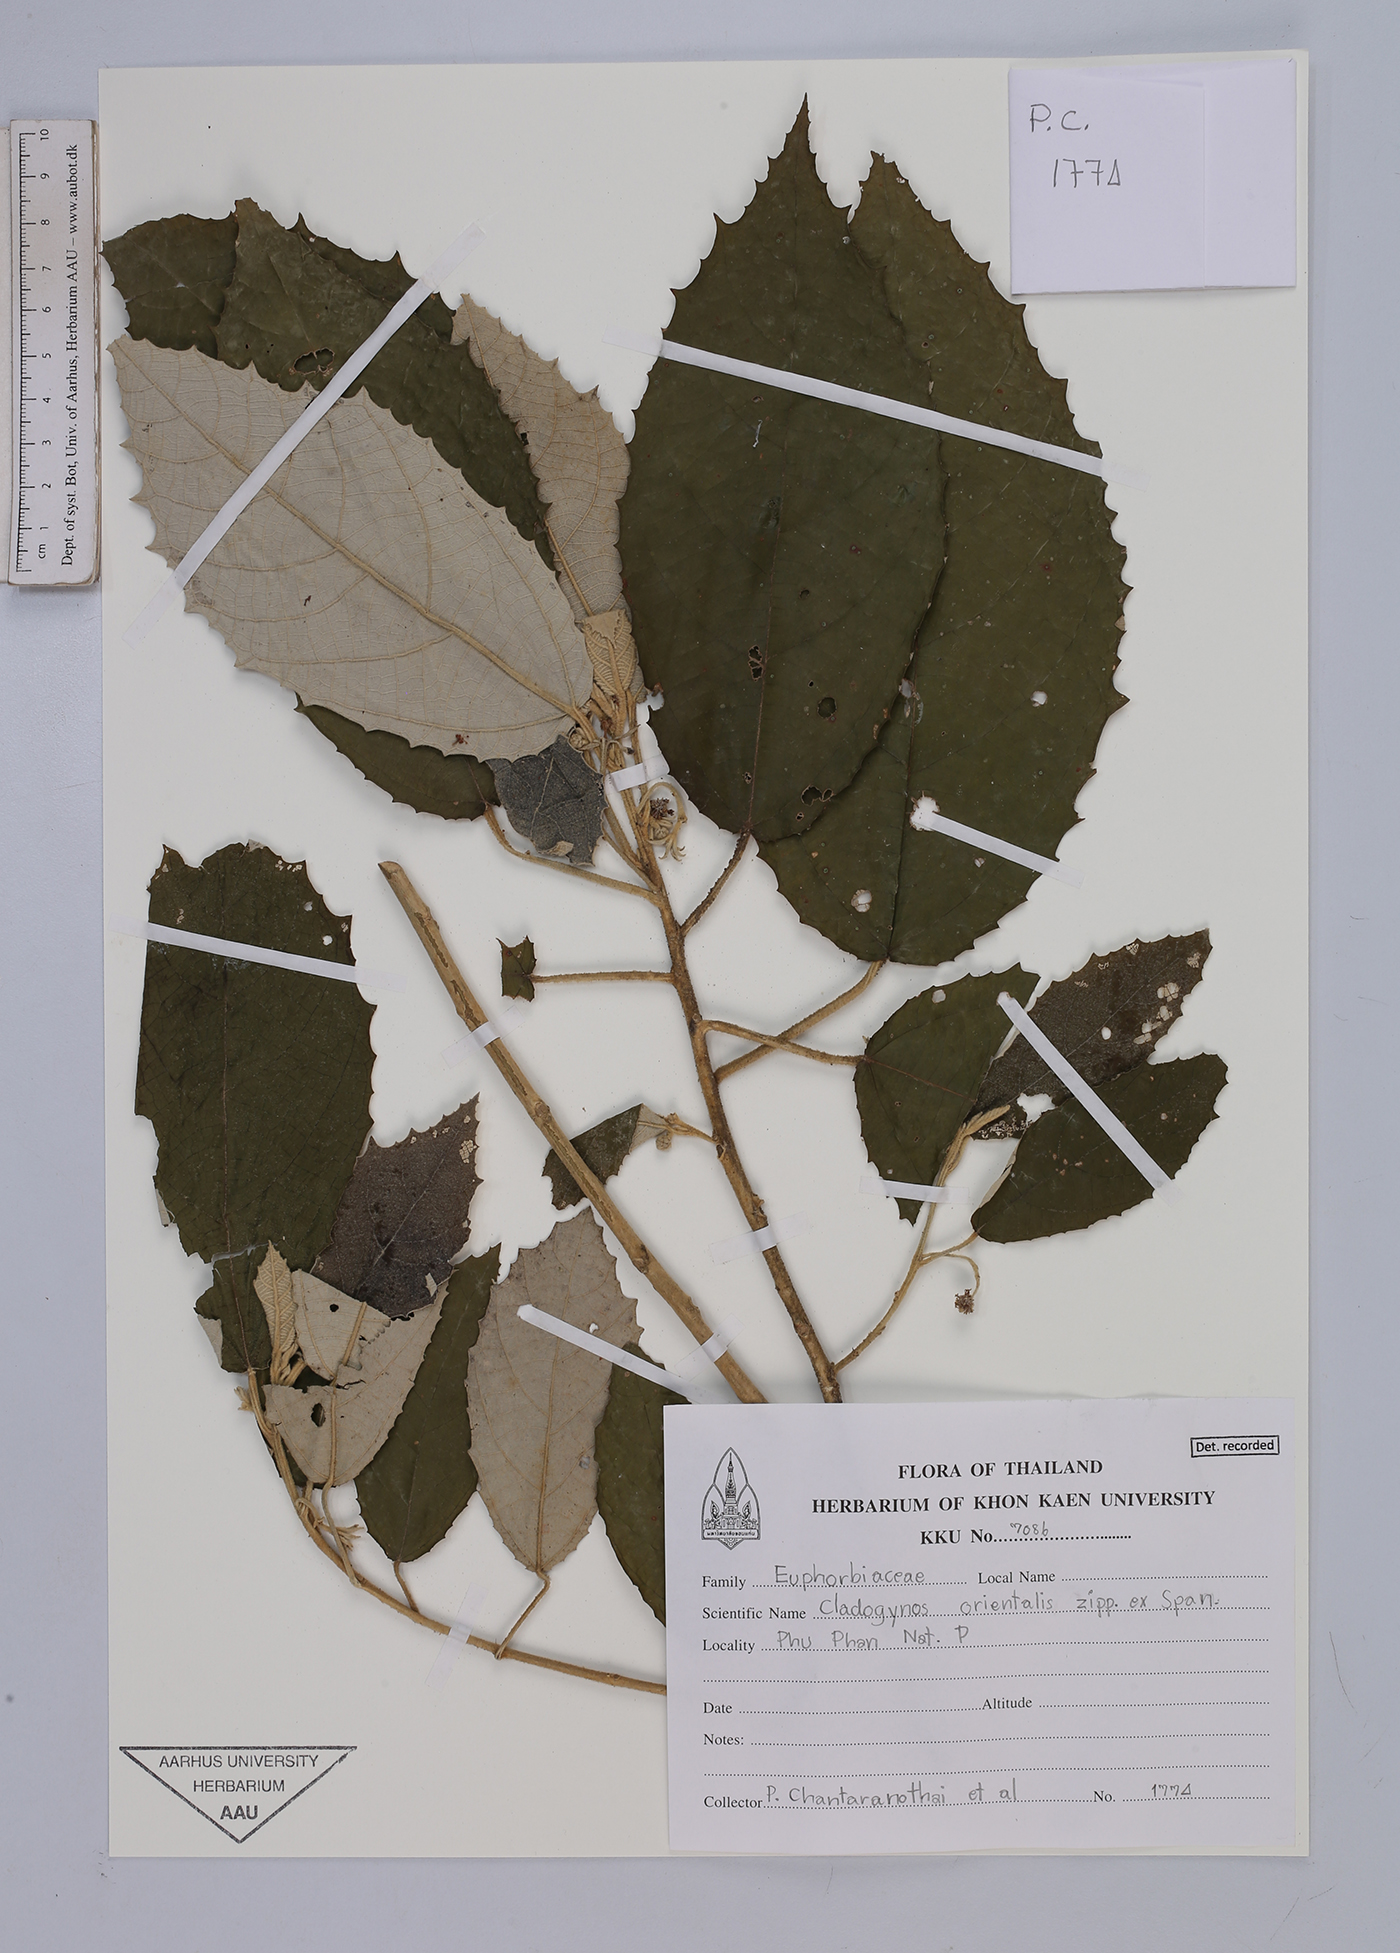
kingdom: Plantae
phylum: Tracheophyta
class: Magnoliopsida
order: Malpighiales
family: Euphorbiaceae
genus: Cladogynos
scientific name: Cladogynos orientalis
